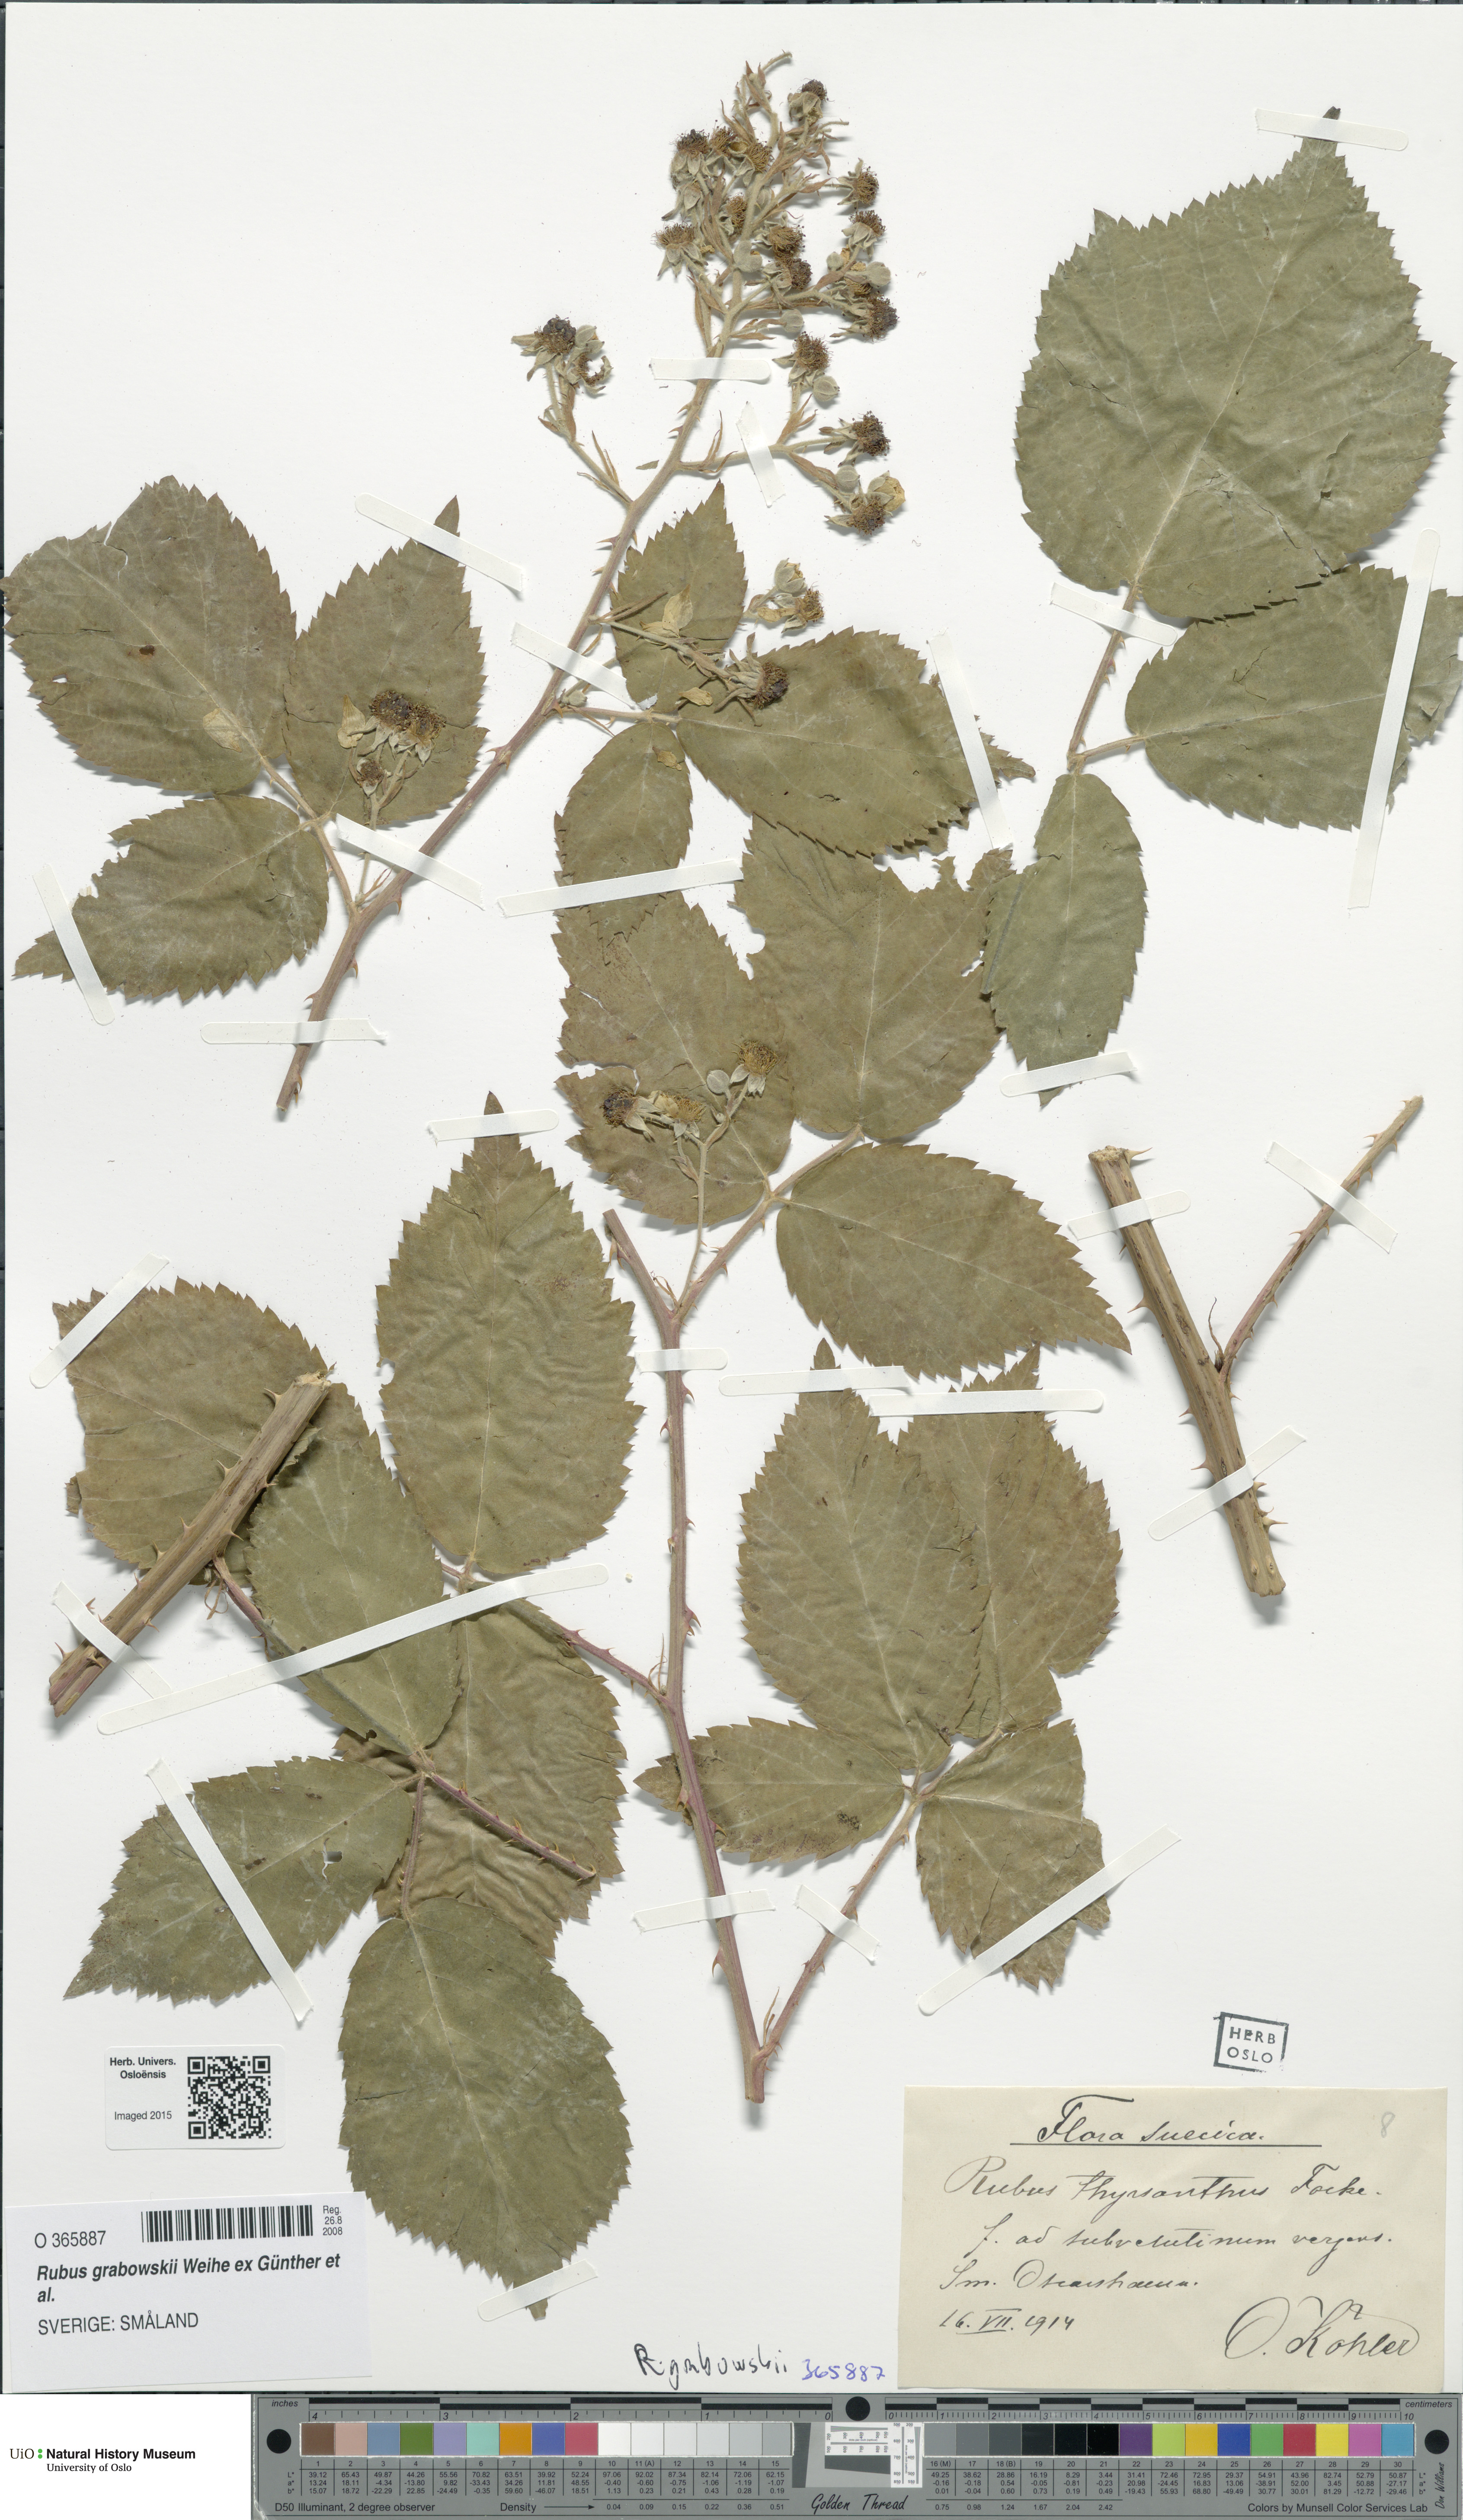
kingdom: Plantae
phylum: Tracheophyta
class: Magnoliopsida
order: Rosales
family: Rosaceae
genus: Rubus
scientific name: Rubus grabowskii
